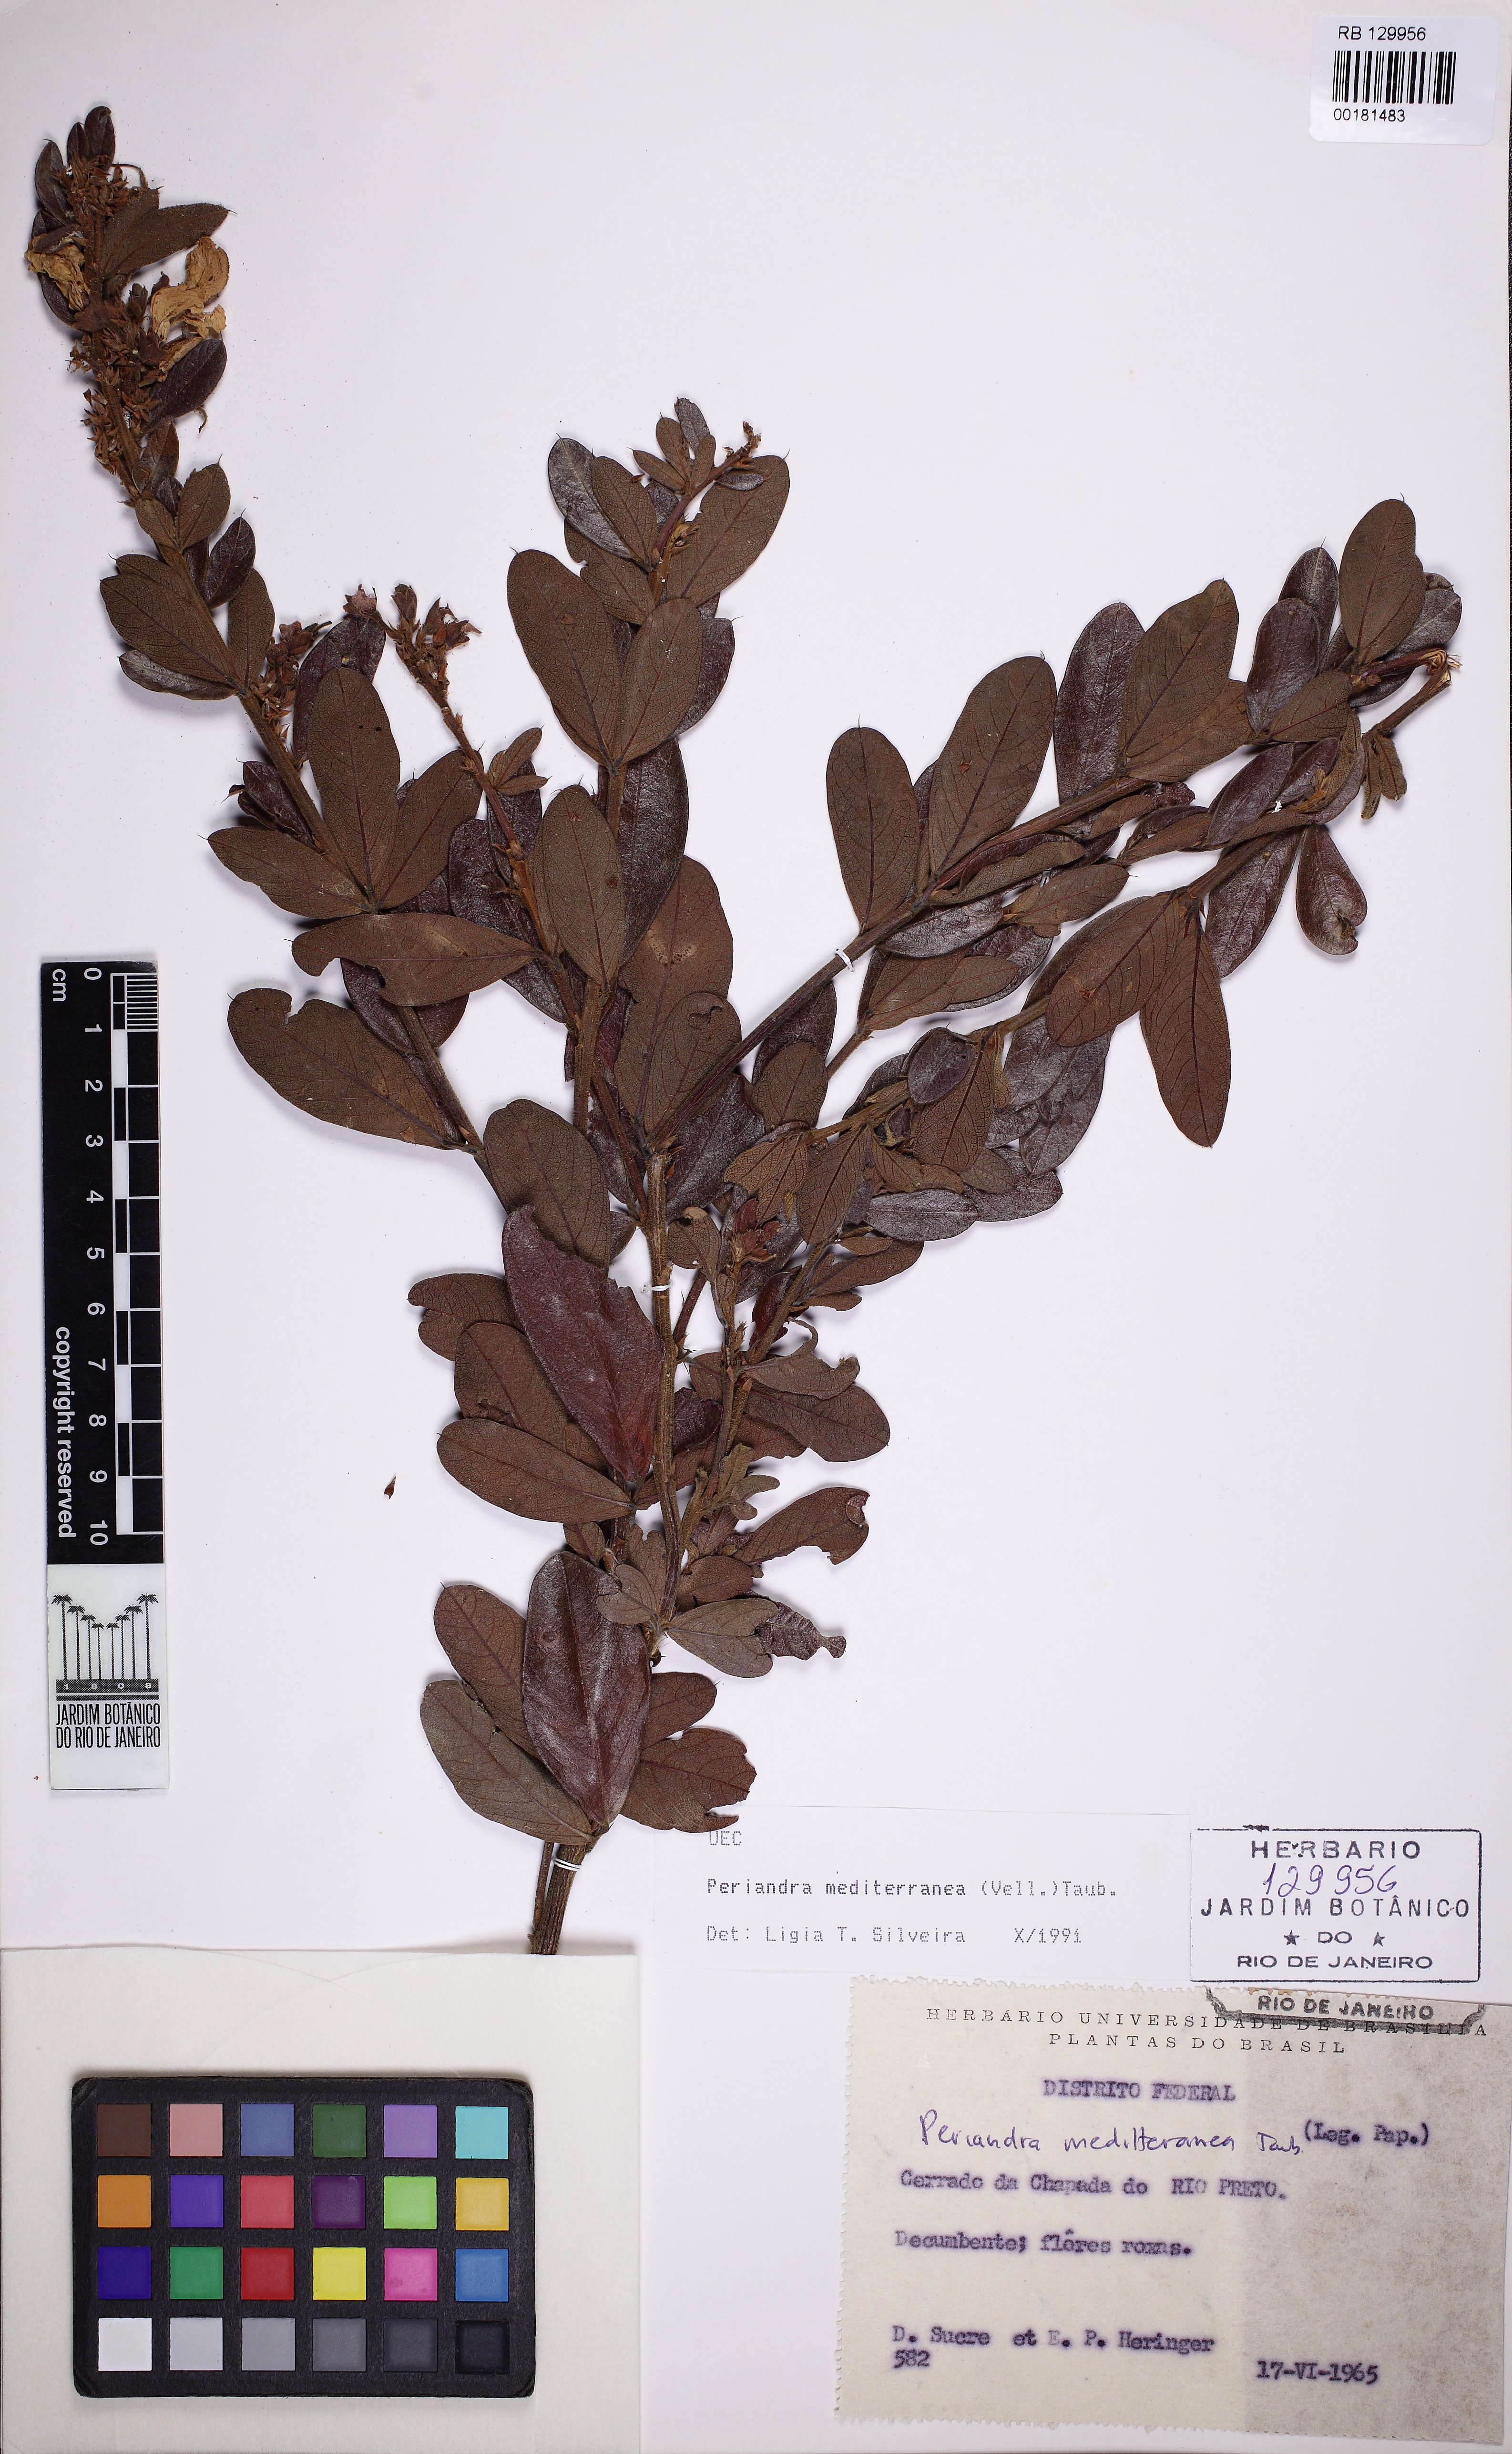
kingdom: Plantae
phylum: Tracheophyta
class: Magnoliopsida
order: Fabales
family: Fabaceae
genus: Periandra
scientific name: Periandra mediterranea
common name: Brazilian licorice
